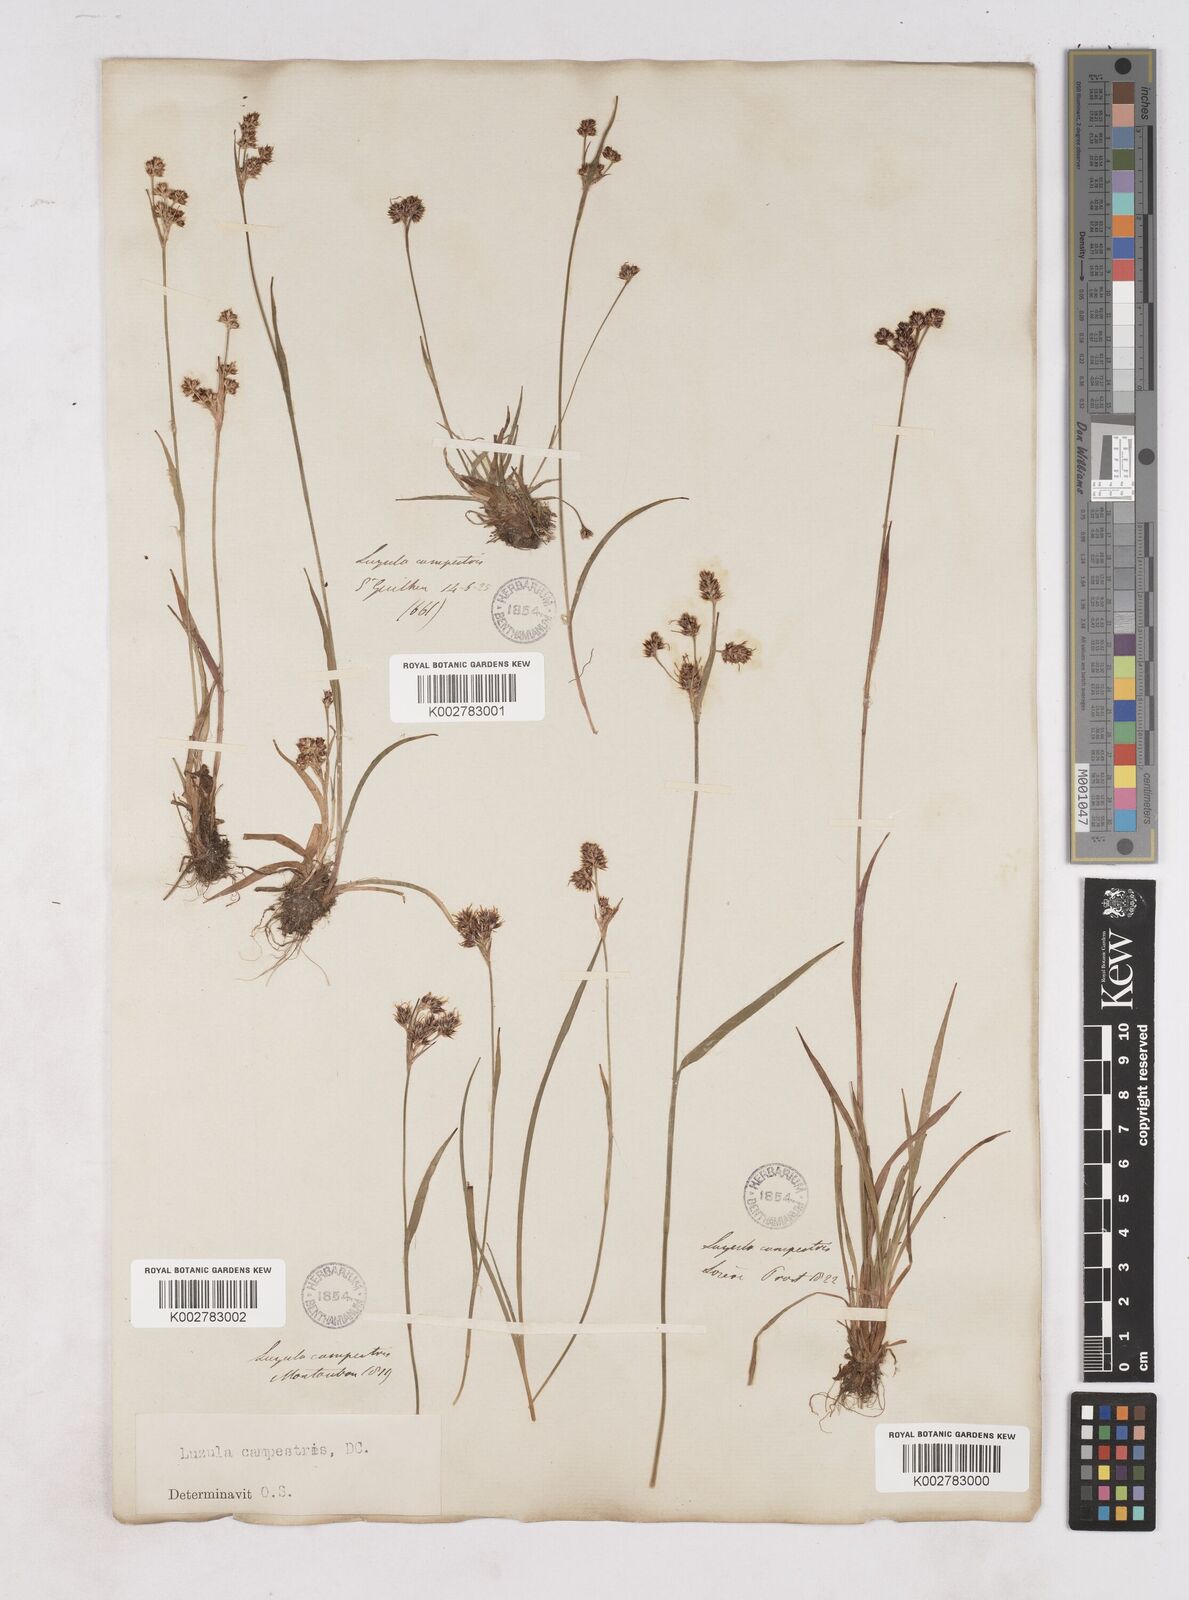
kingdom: Plantae
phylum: Tracheophyta
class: Liliopsida
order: Poales
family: Juncaceae
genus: Luzula
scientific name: Luzula campestris
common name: Field wood-rush
